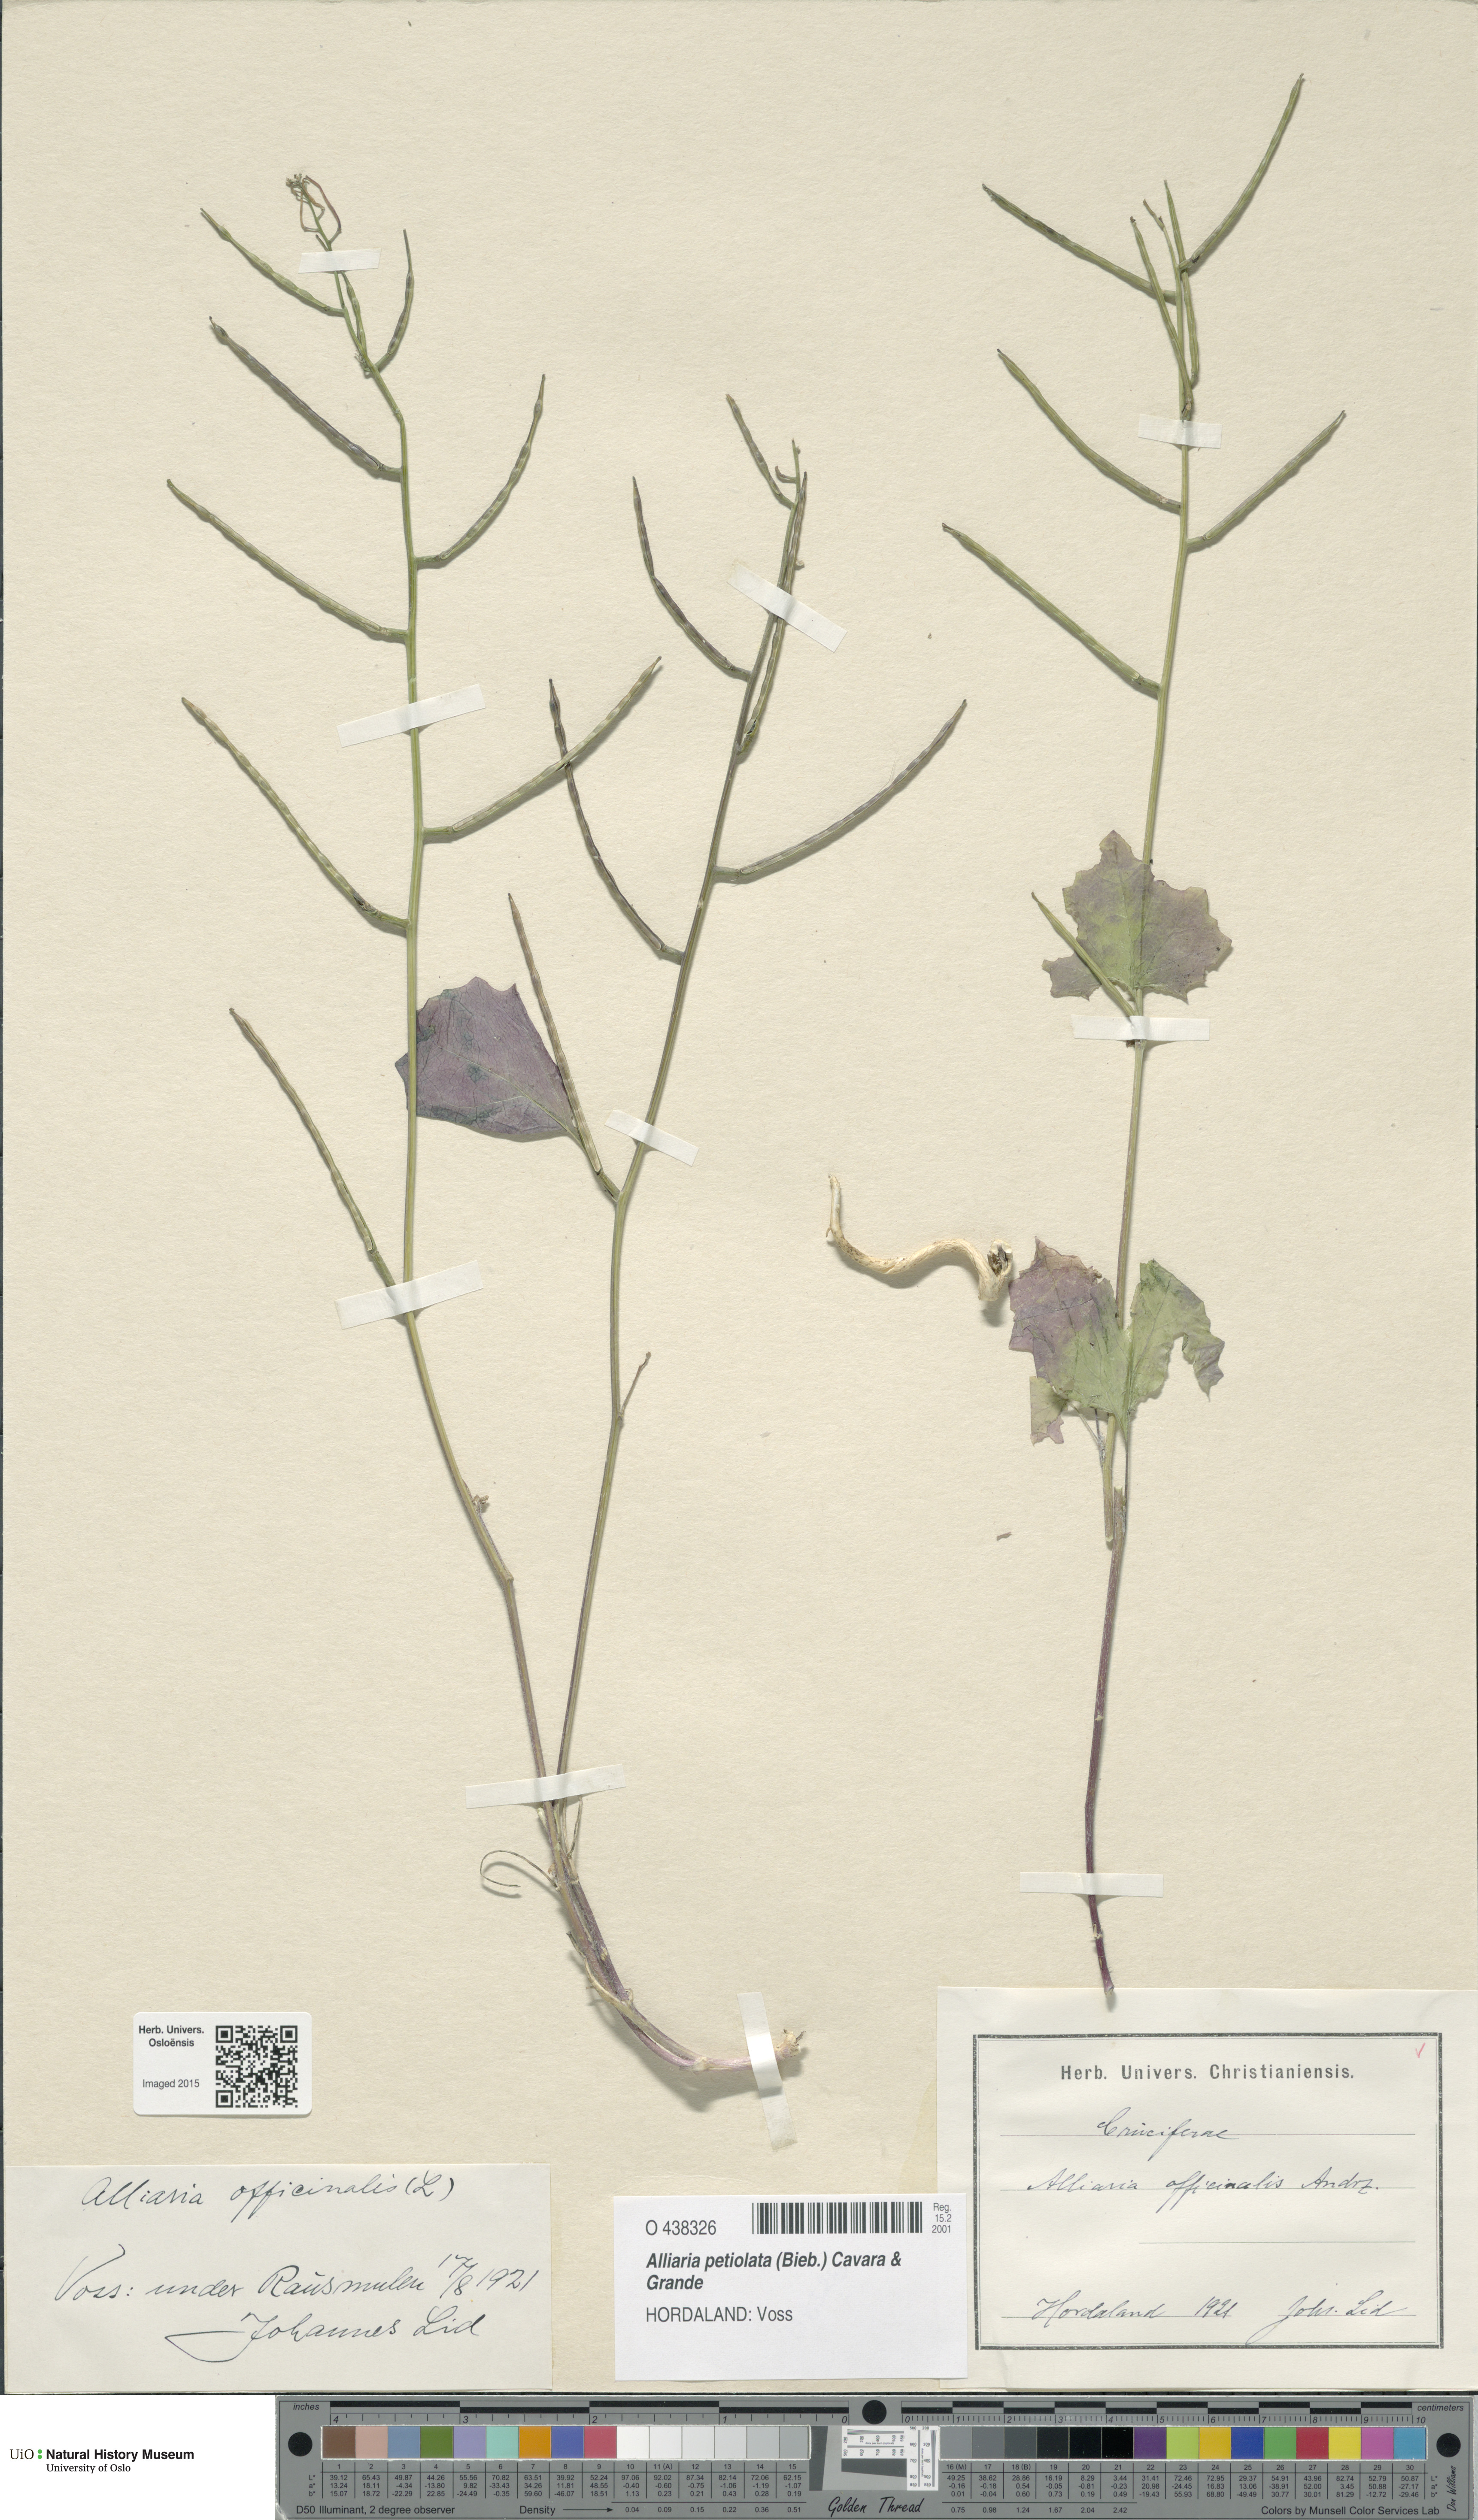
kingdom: Plantae
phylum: Tracheophyta
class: Magnoliopsida
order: Brassicales
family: Brassicaceae
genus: Alliaria
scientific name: Alliaria petiolata
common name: Garlic mustard
